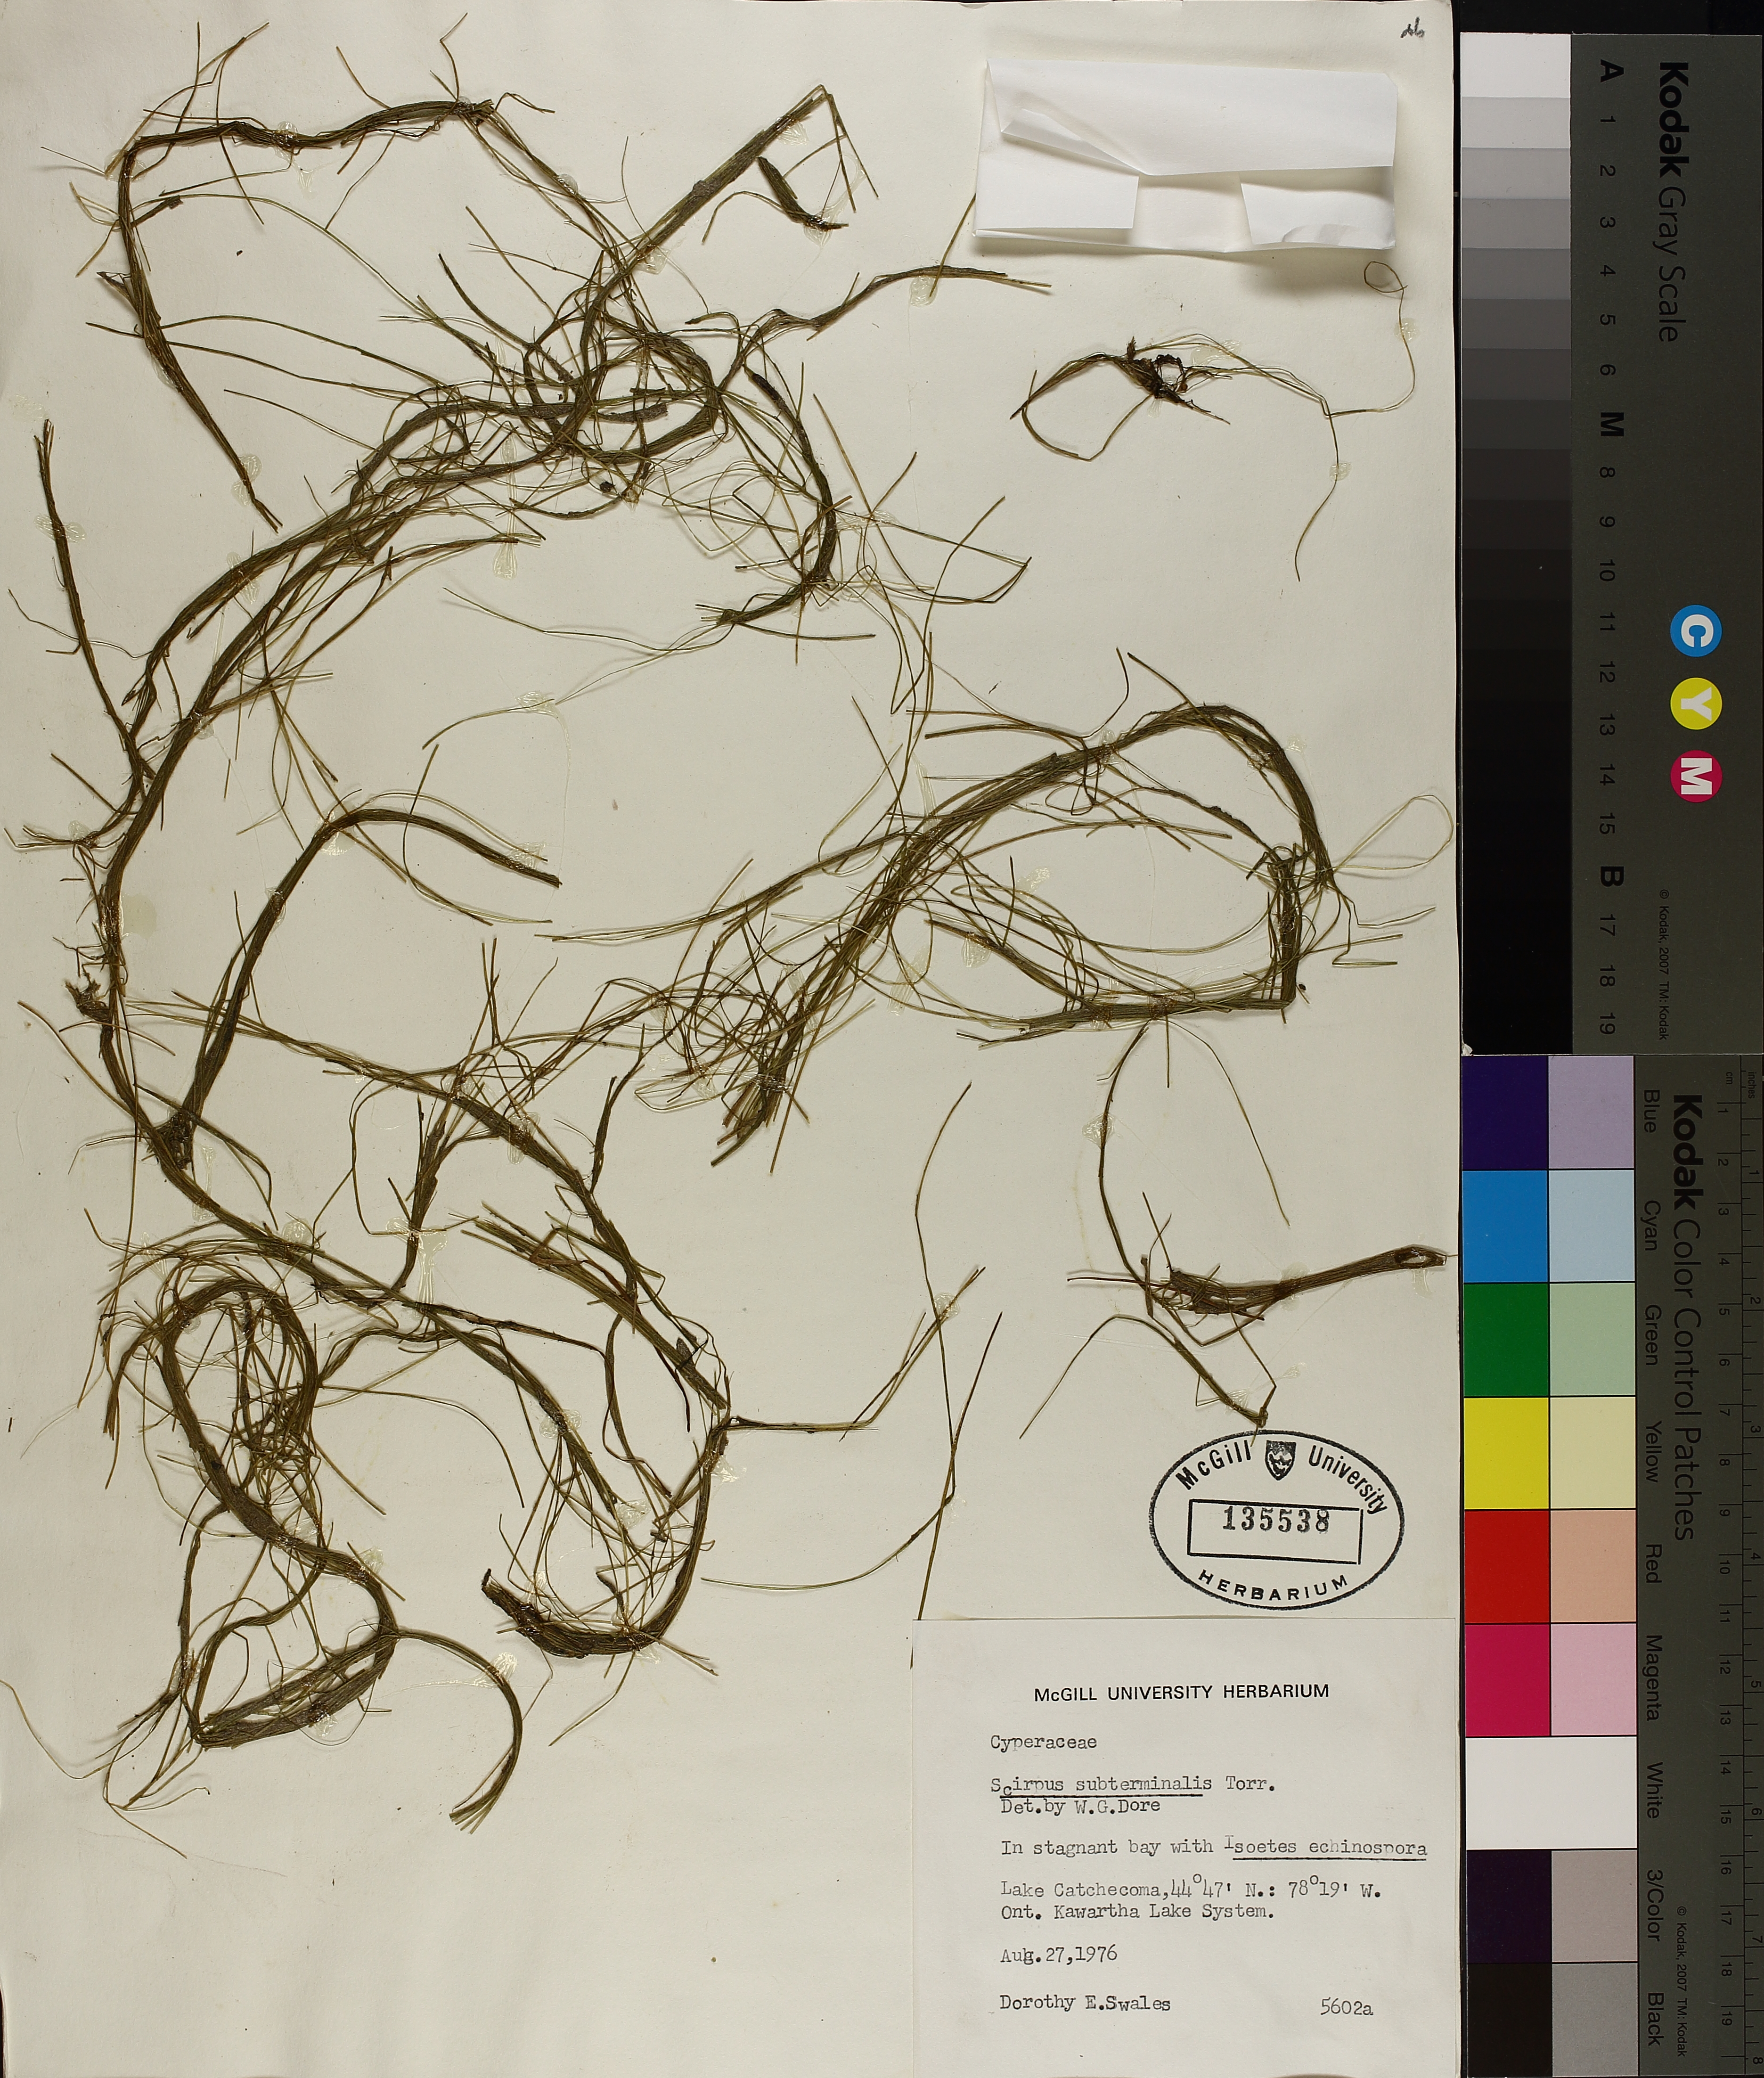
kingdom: Plantae
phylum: Tracheophyta
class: Liliopsida
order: Poales
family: Cyperaceae
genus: Schoenoplectus
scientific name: Schoenoplectus subterminalis
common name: Swaying bulrush
